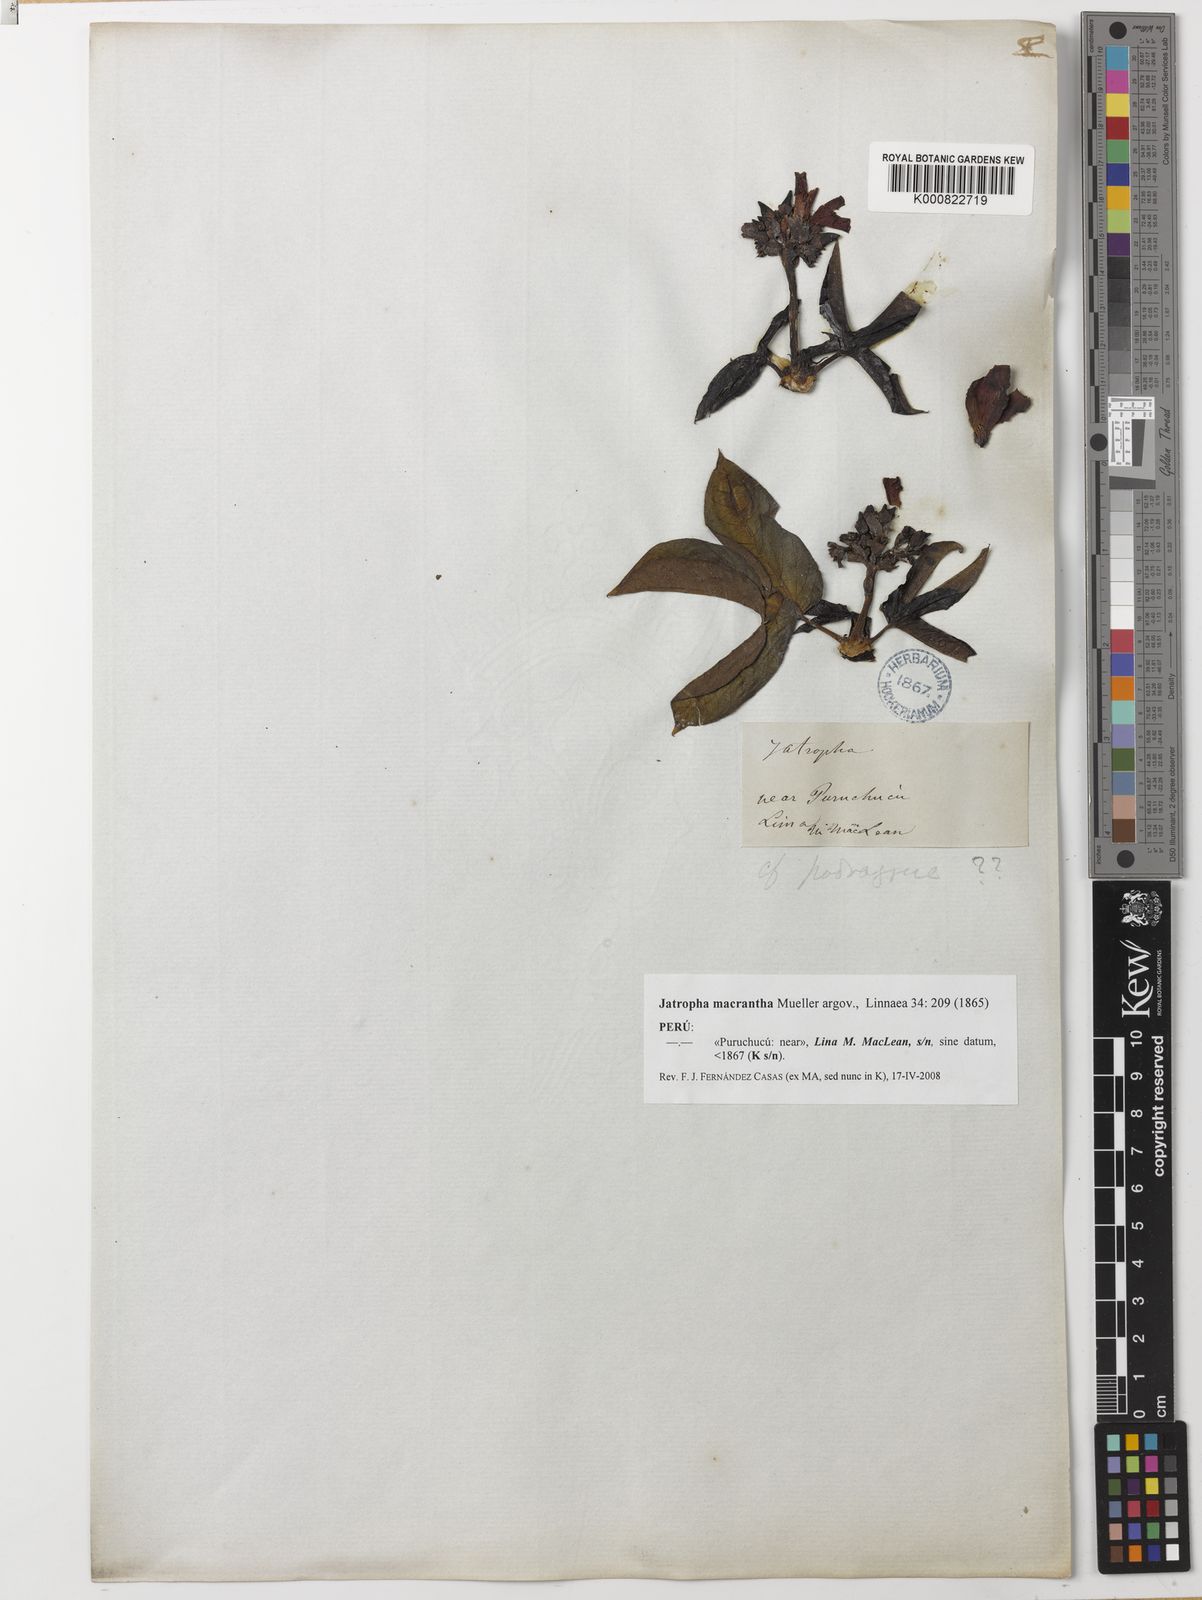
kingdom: Plantae
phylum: Tracheophyta
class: Magnoliopsida
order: Malpighiales
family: Euphorbiaceae
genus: Jatropha
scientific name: Jatropha
